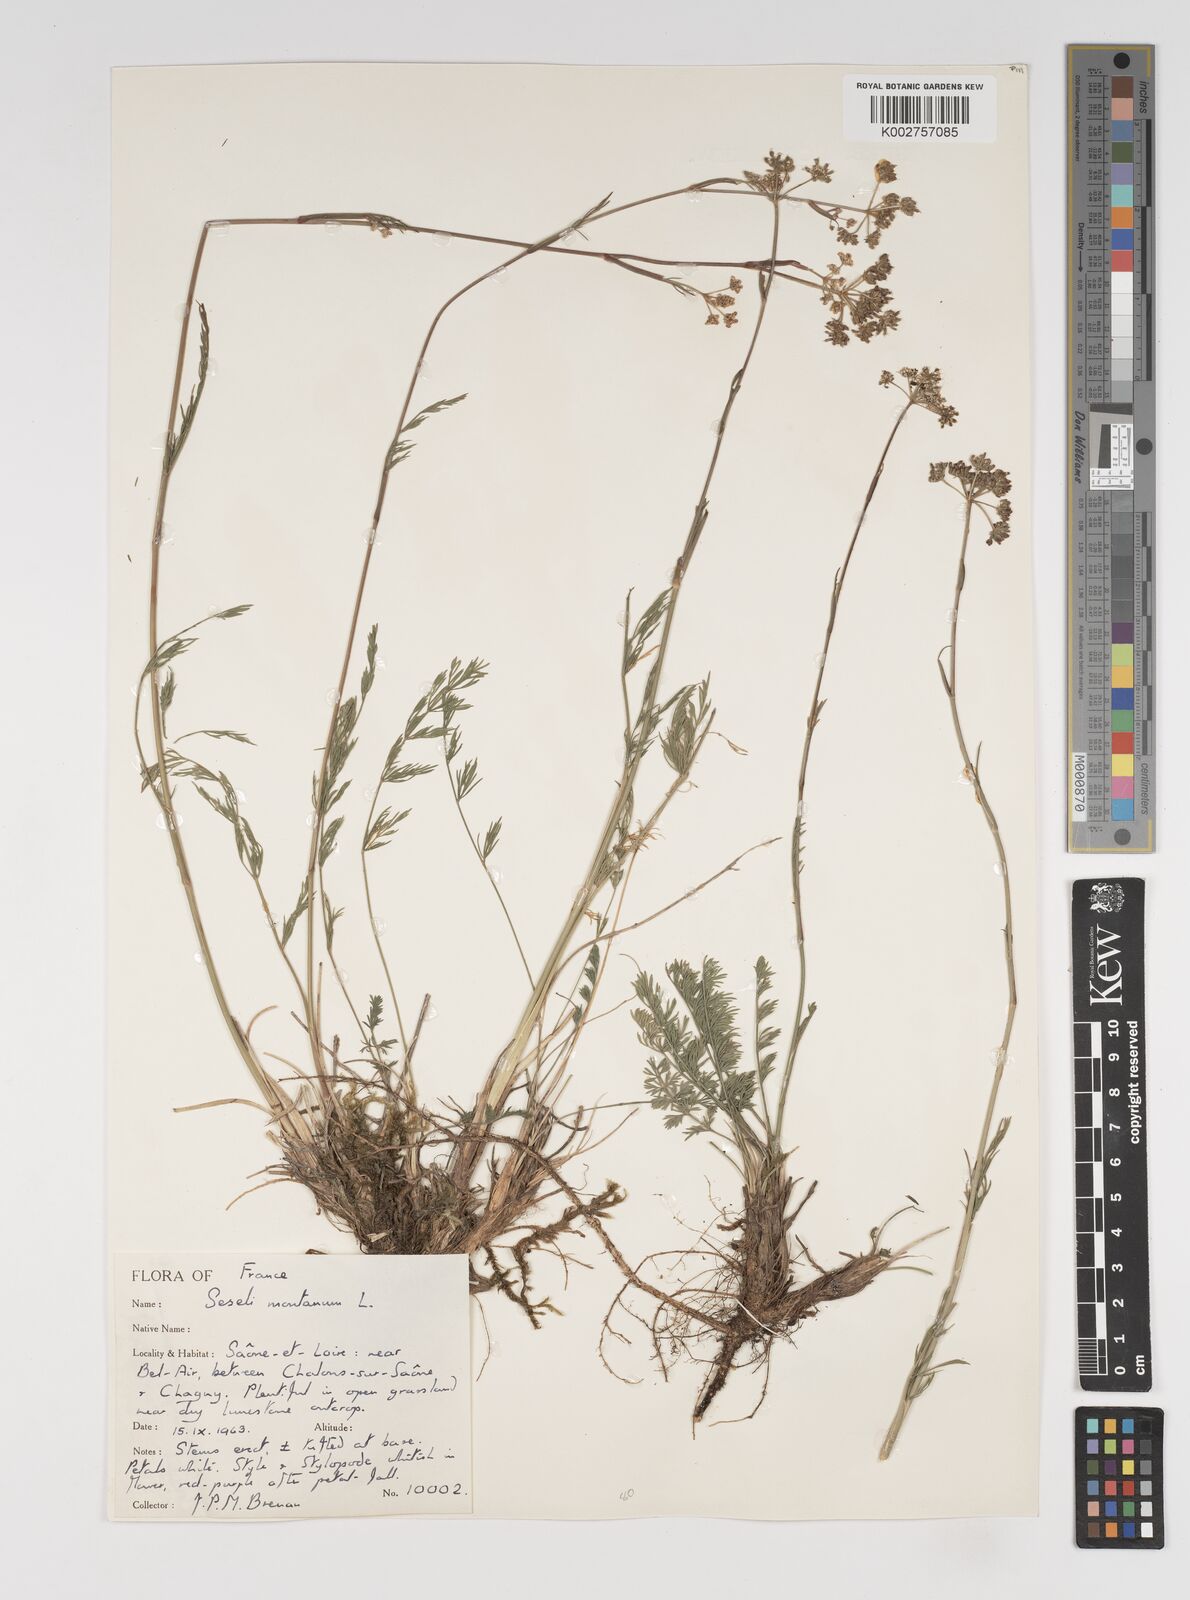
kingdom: Plantae
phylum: Tracheophyta
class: Magnoliopsida
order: Apiales
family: Apiaceae
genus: Seseli
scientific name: Seseli montanum
